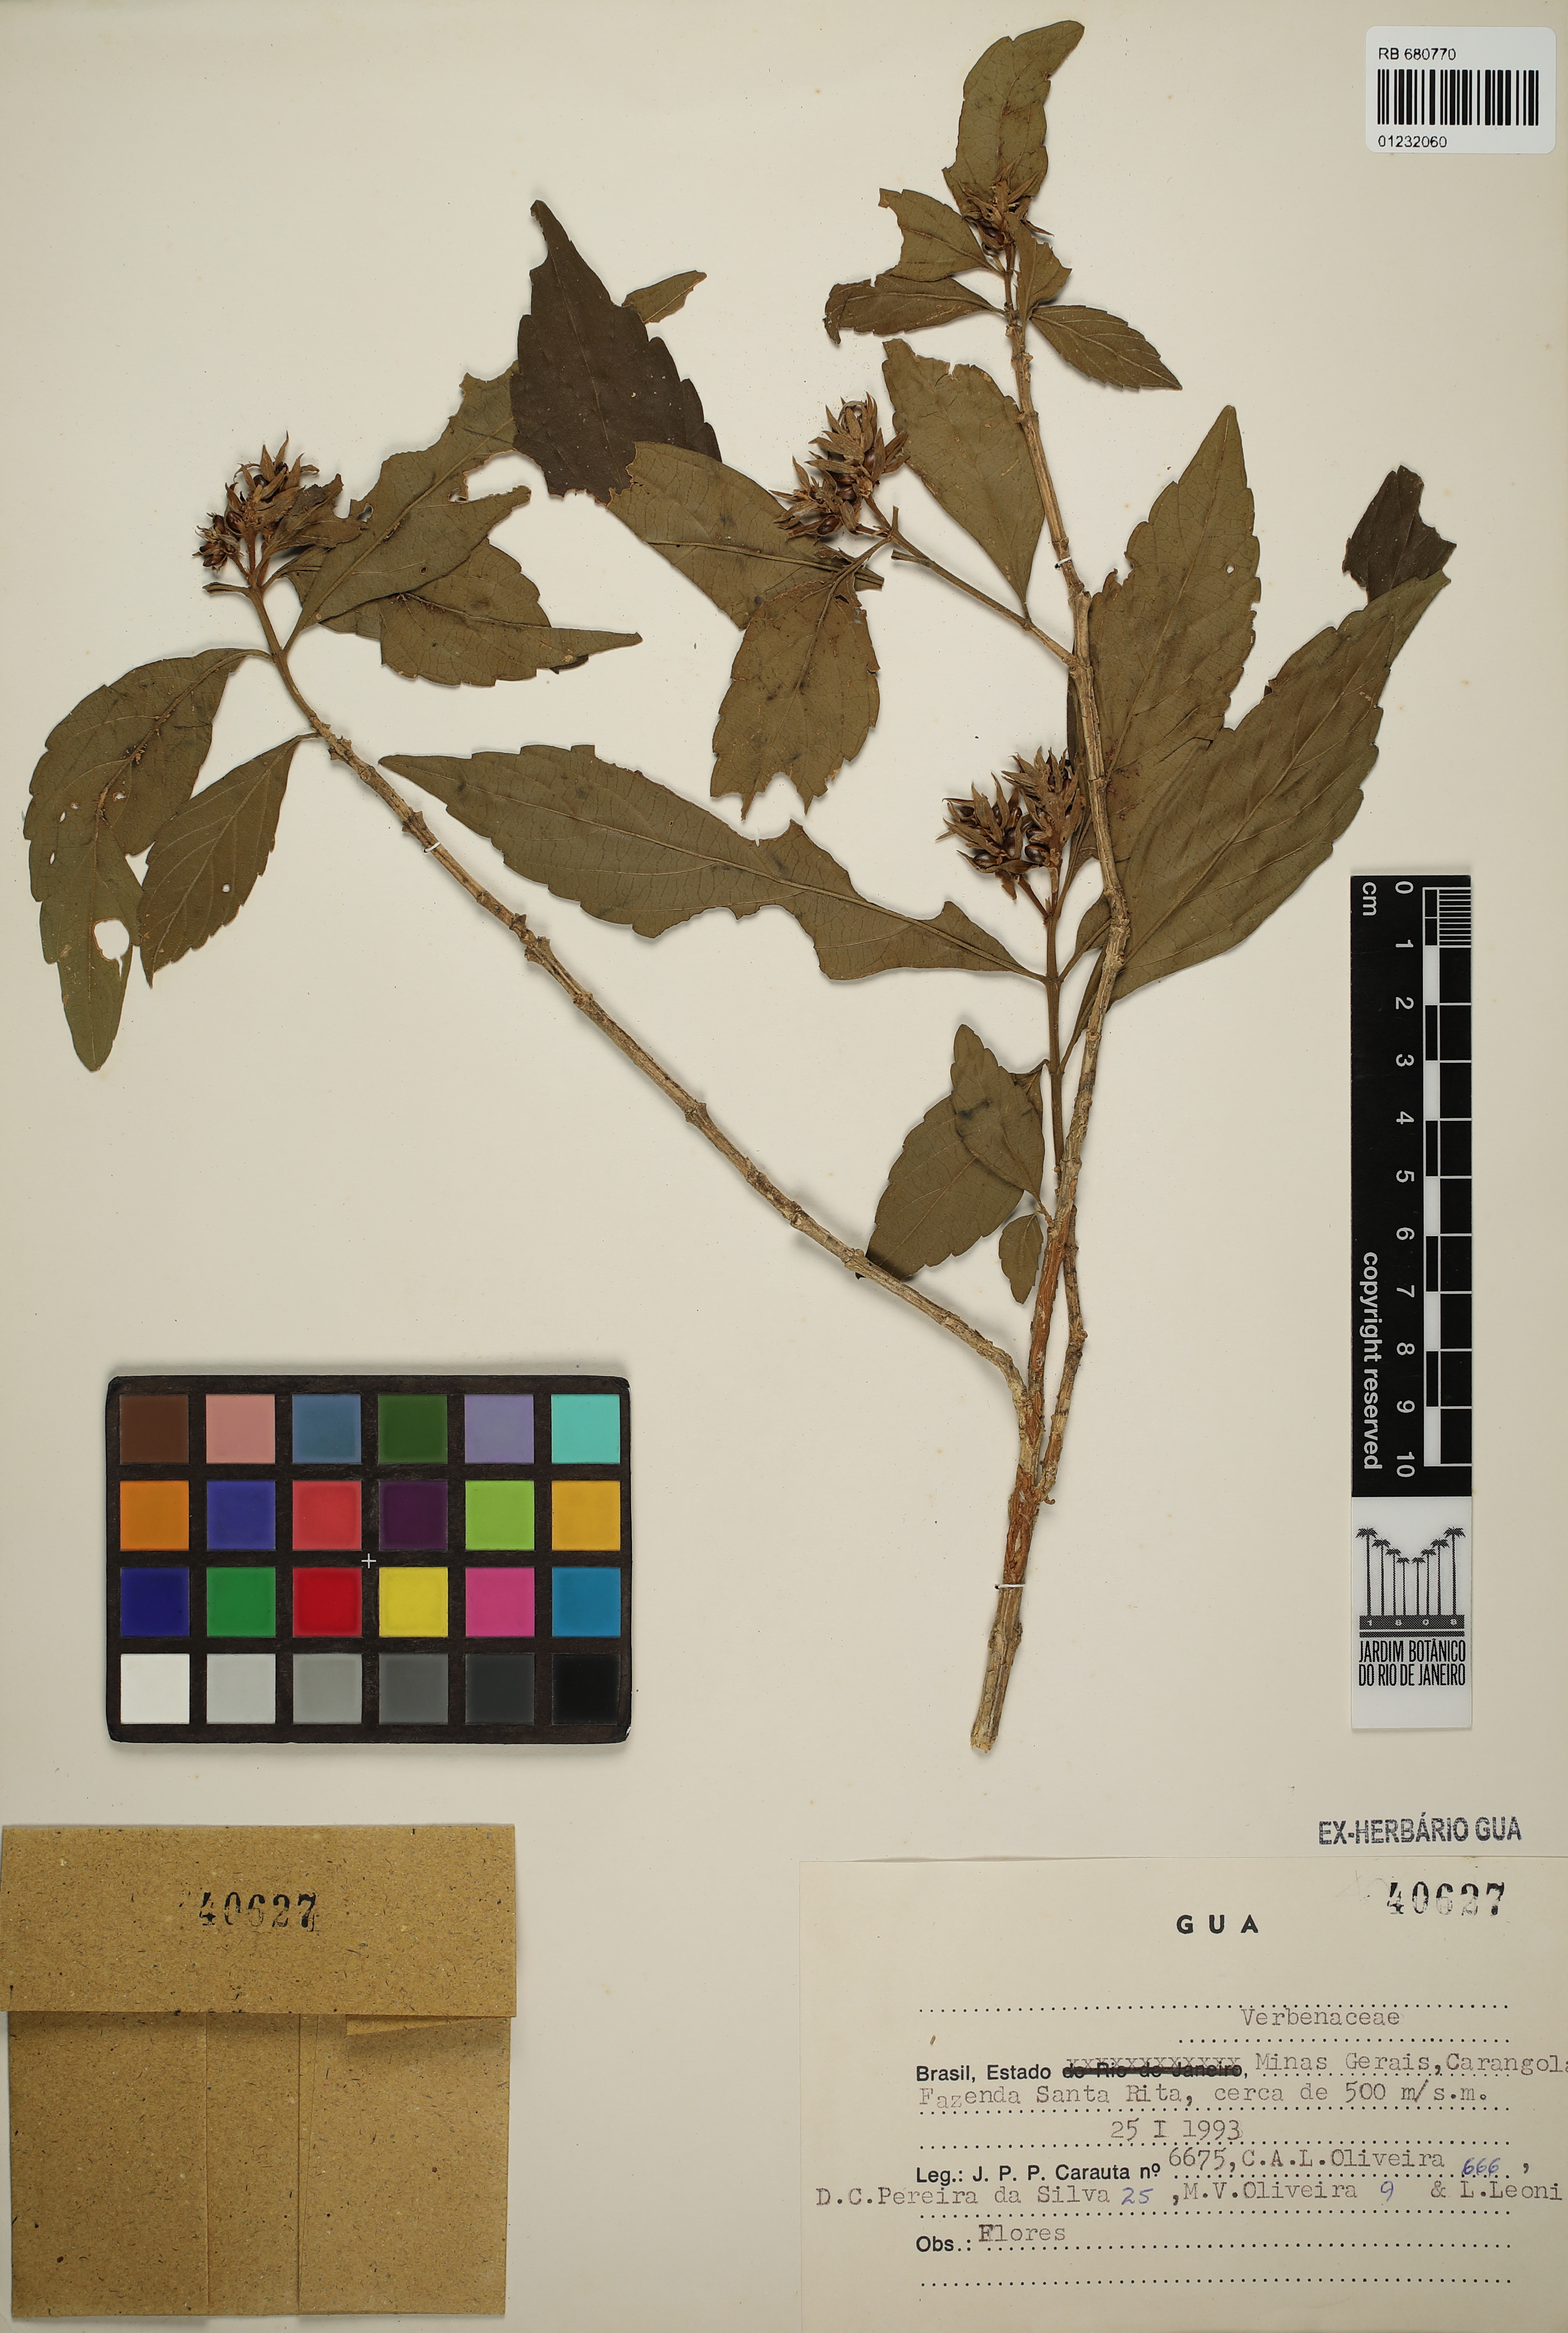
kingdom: Plantae
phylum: Tracheophyta
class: Magnoliopsida
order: Lamiales
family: Verbenaceae
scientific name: Verbenaceae
